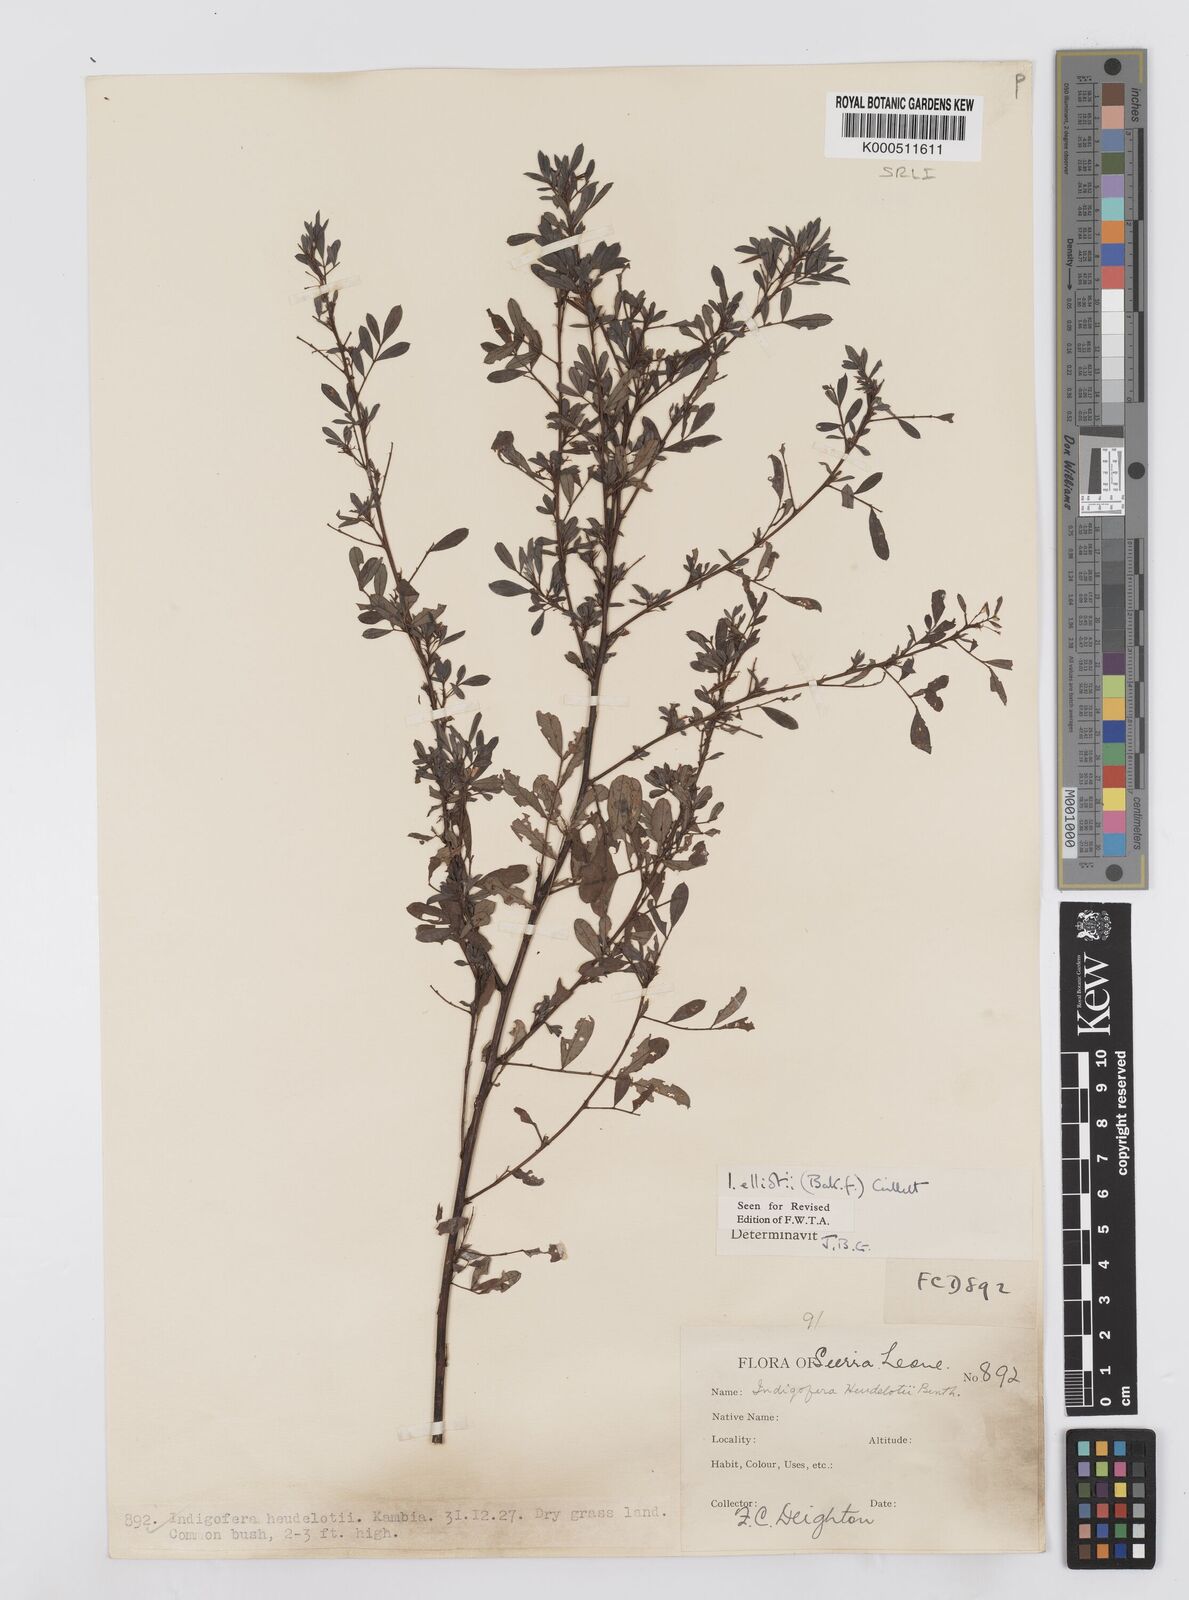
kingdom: Plantae
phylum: Tracheophyta
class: Magnoliopsida
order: Fabales
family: Fabaceae
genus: Indigofera
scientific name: Indigofera elliotii
